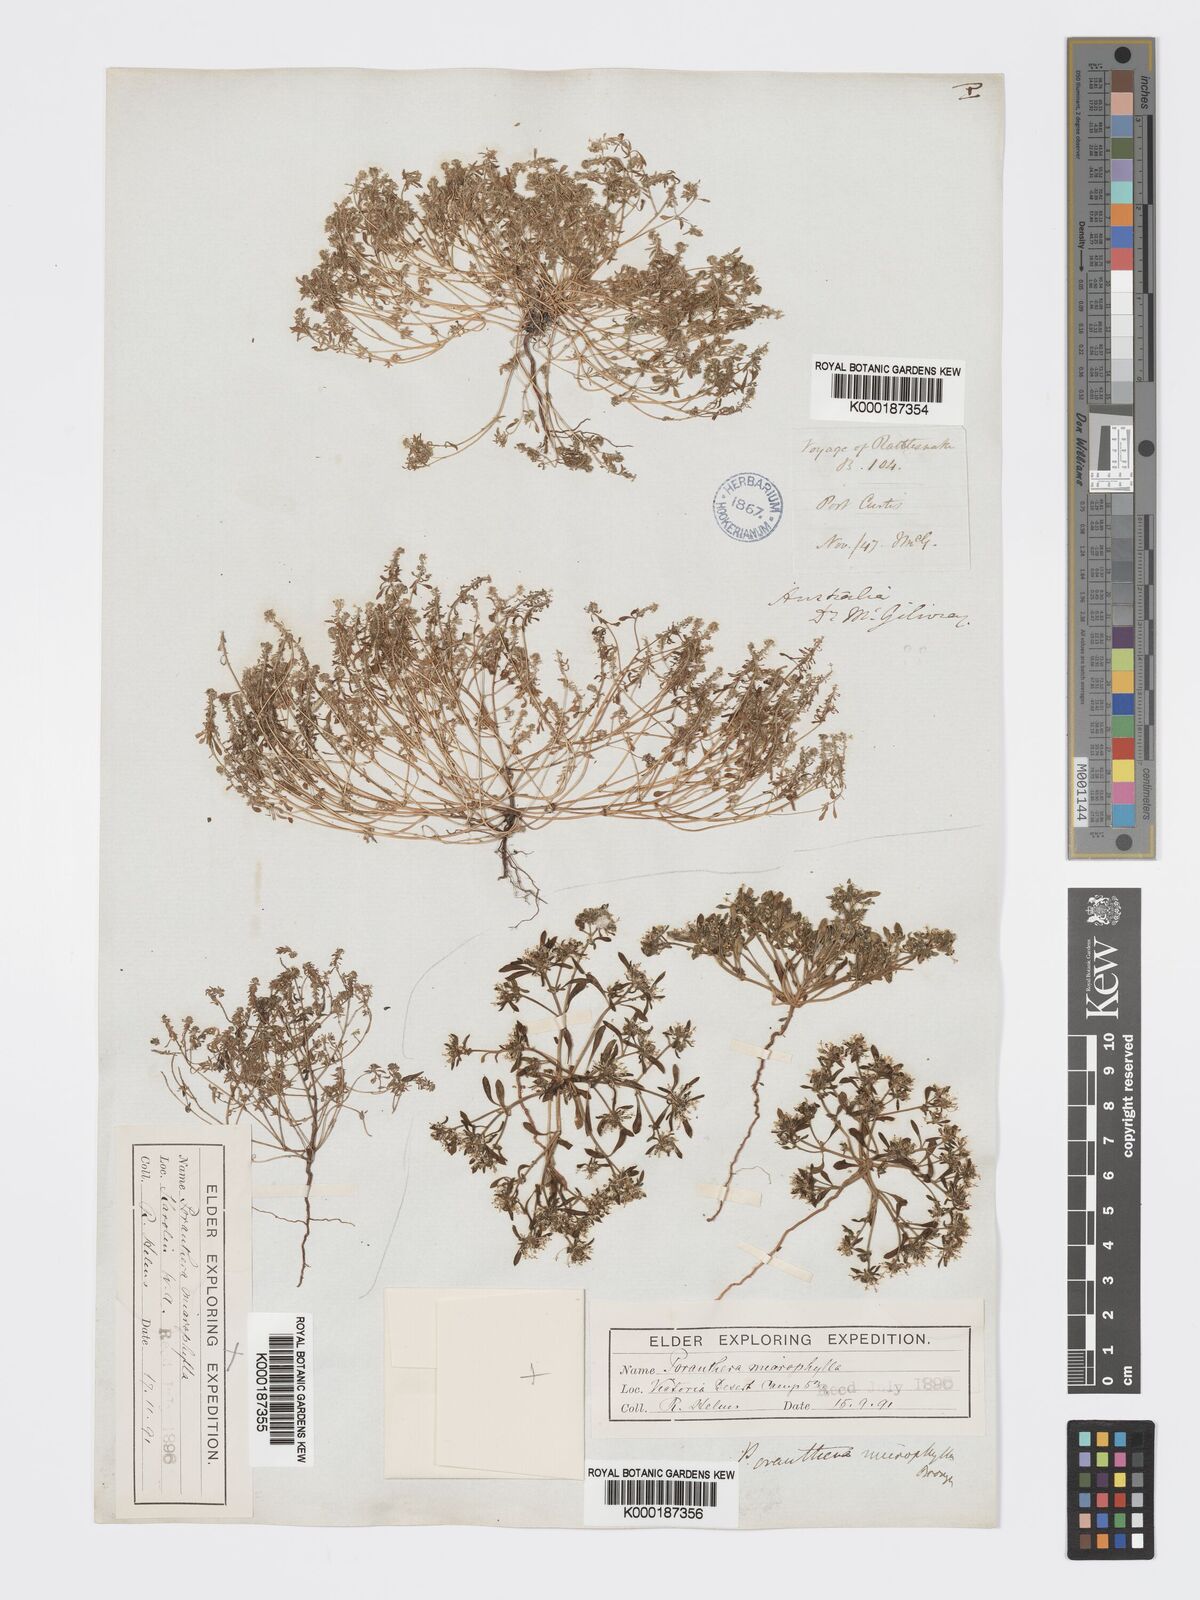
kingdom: Plantae
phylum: Tracheophyta
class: Magnoliopsida
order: Malpighiales
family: Phyllanthaceae
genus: Poranthera
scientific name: Poranthera microphylla
